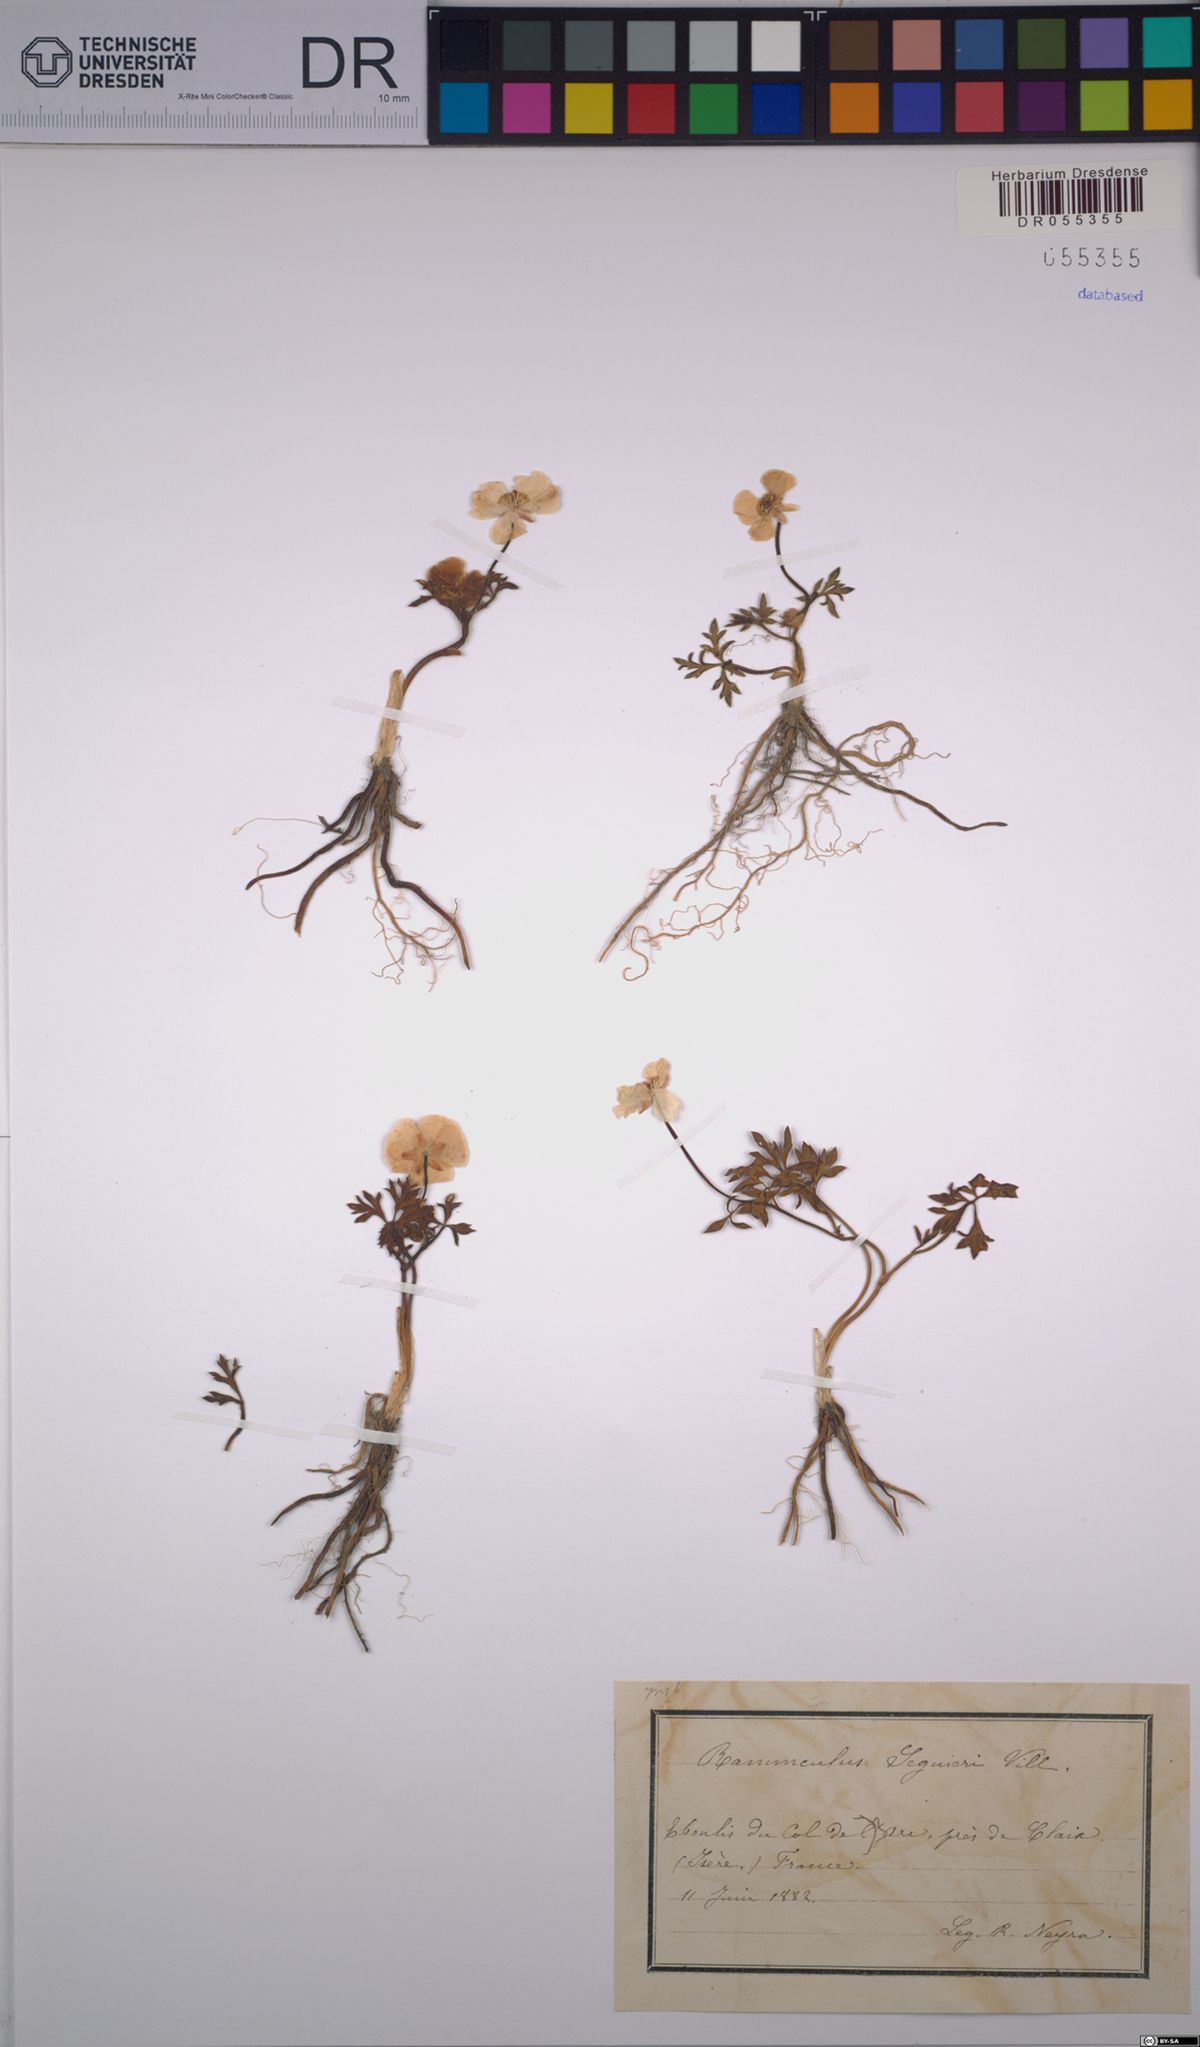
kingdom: Plantae
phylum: Tracheophyta
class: Magnoliopsida
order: Ranunculales
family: Ranunculaceae
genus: Ranunculus
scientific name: Ranunculus seguieri
